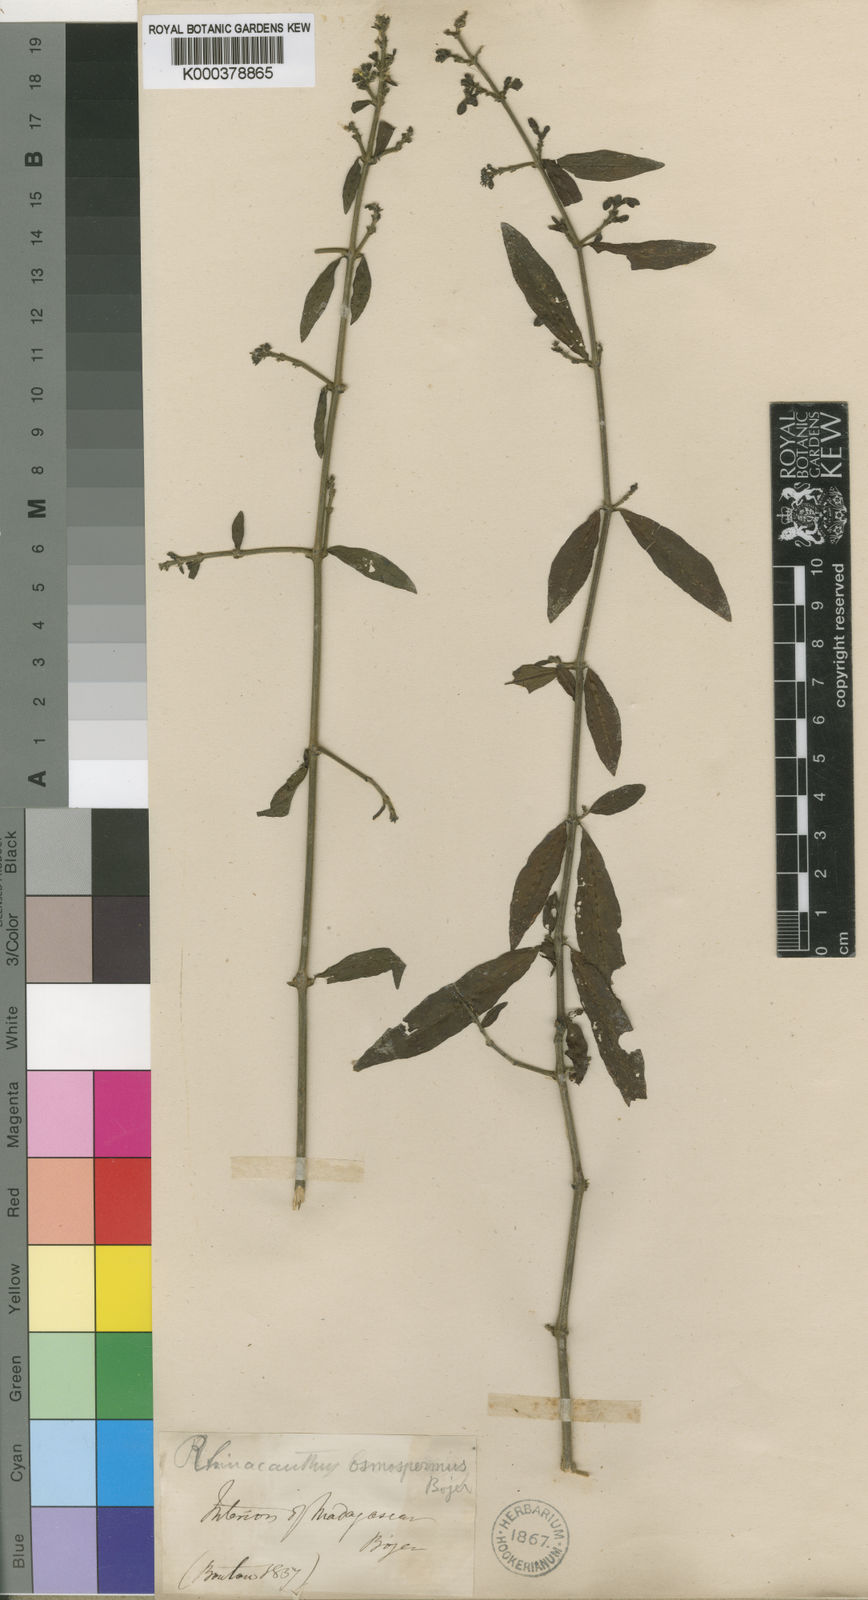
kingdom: Plantae
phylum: Tracheophyta
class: Magnoliopsida
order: Lamiales
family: Acanthaceae
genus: Rhinacanthus
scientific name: Rhinacanthus
